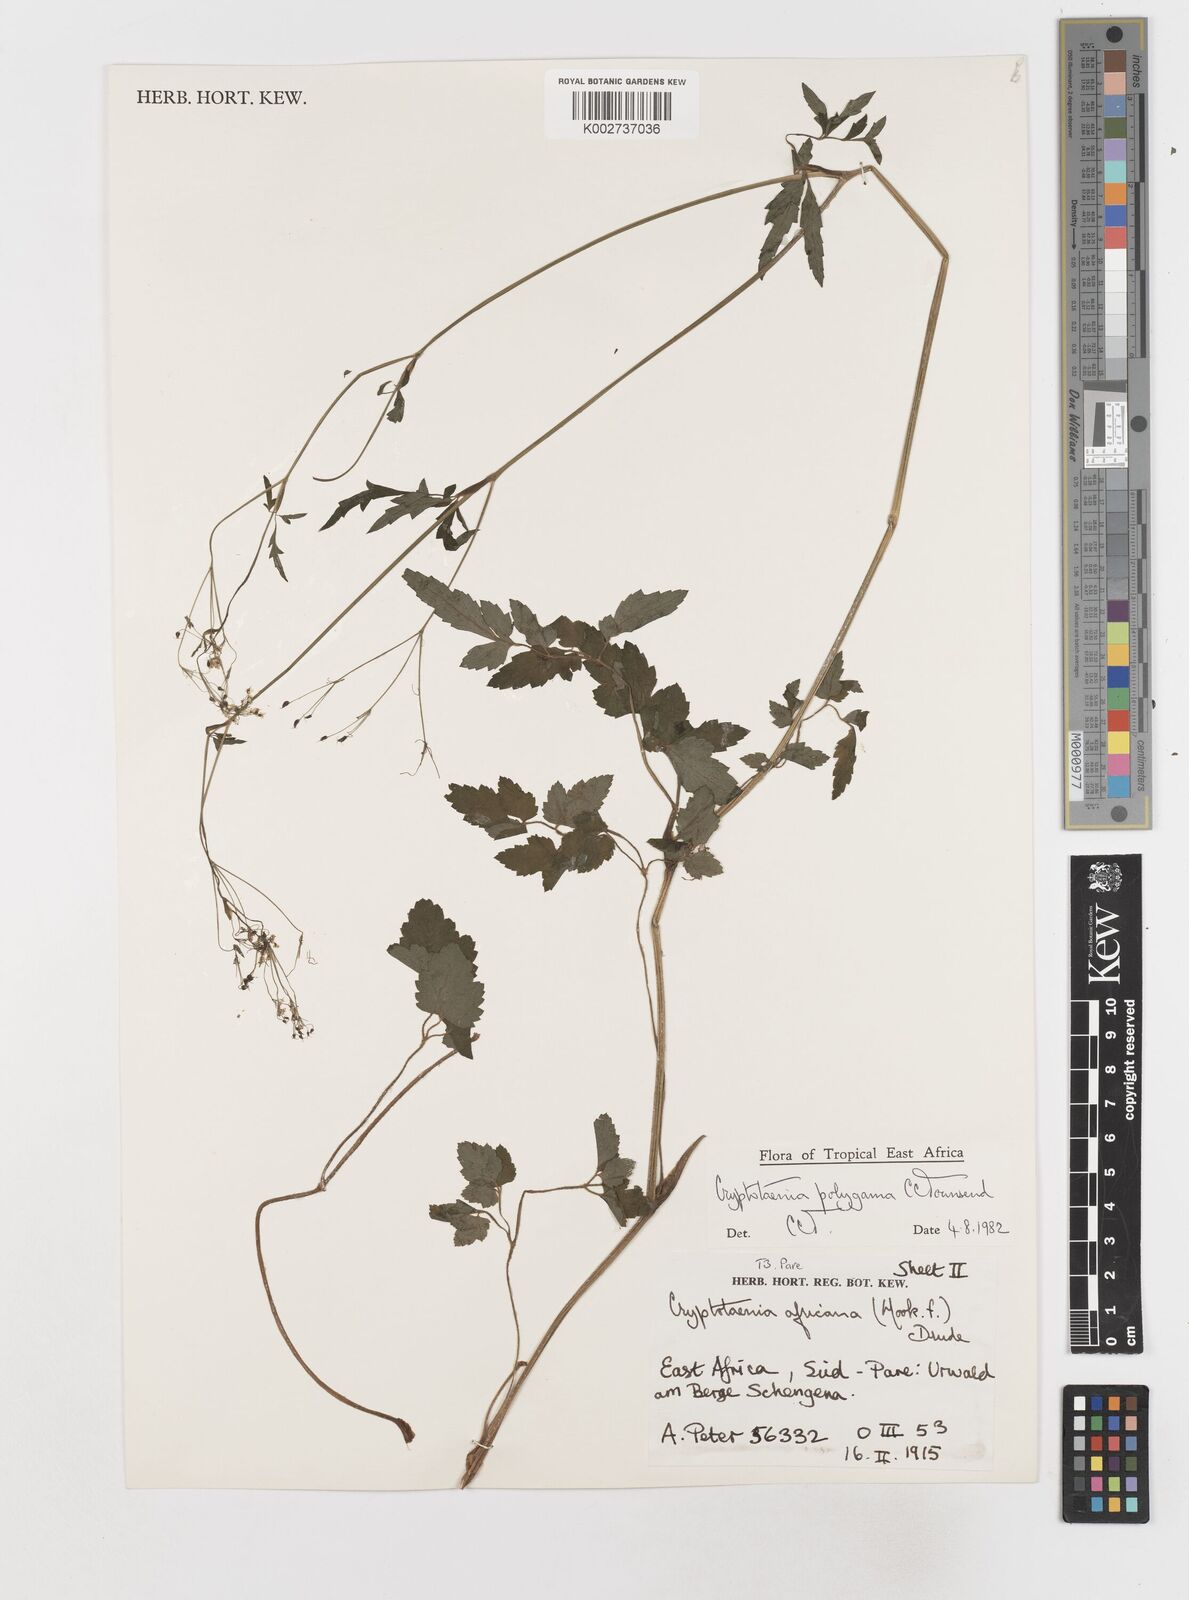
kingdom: Plantae
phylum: Tracheophyta
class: Magnoliopsida
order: Apiales
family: Apiaceae
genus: Cryptotaenia
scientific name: Cryptotaenia polygama
